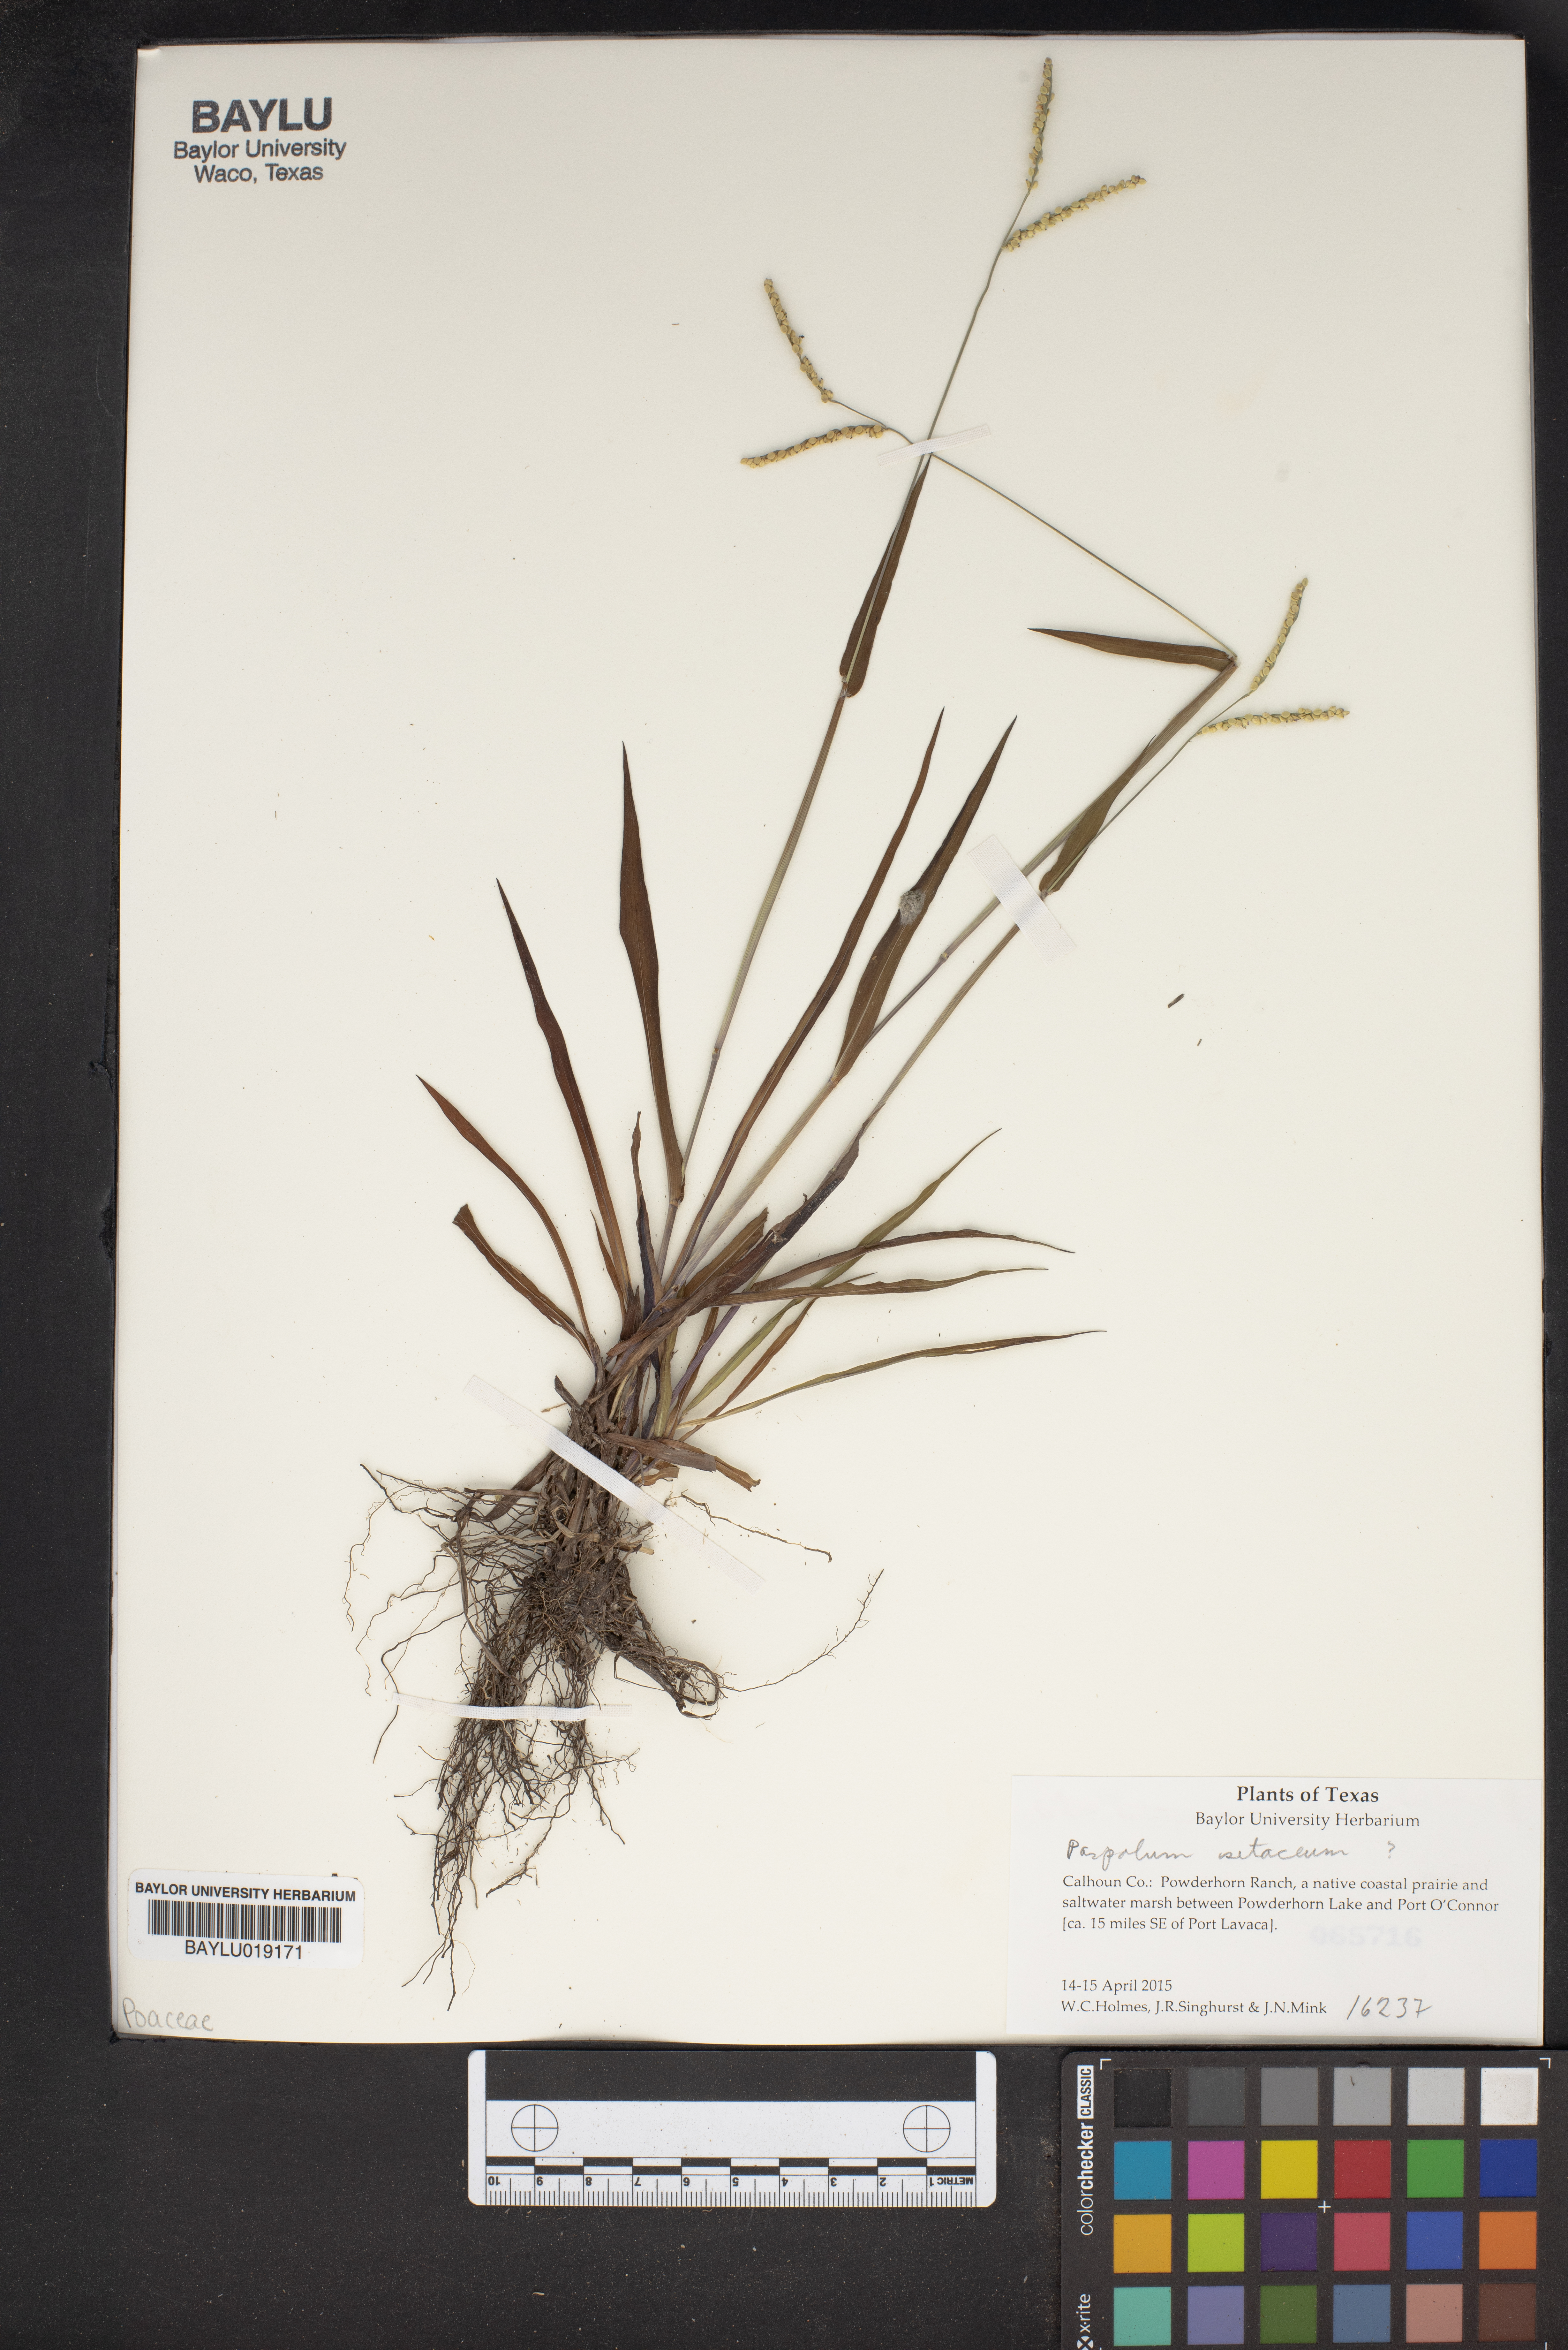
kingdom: Plantae
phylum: Tracheophyta
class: Liliopsida
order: Poales
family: Poaceae
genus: Paspalum
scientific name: Paspalum setaceum
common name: Slender paspalum
